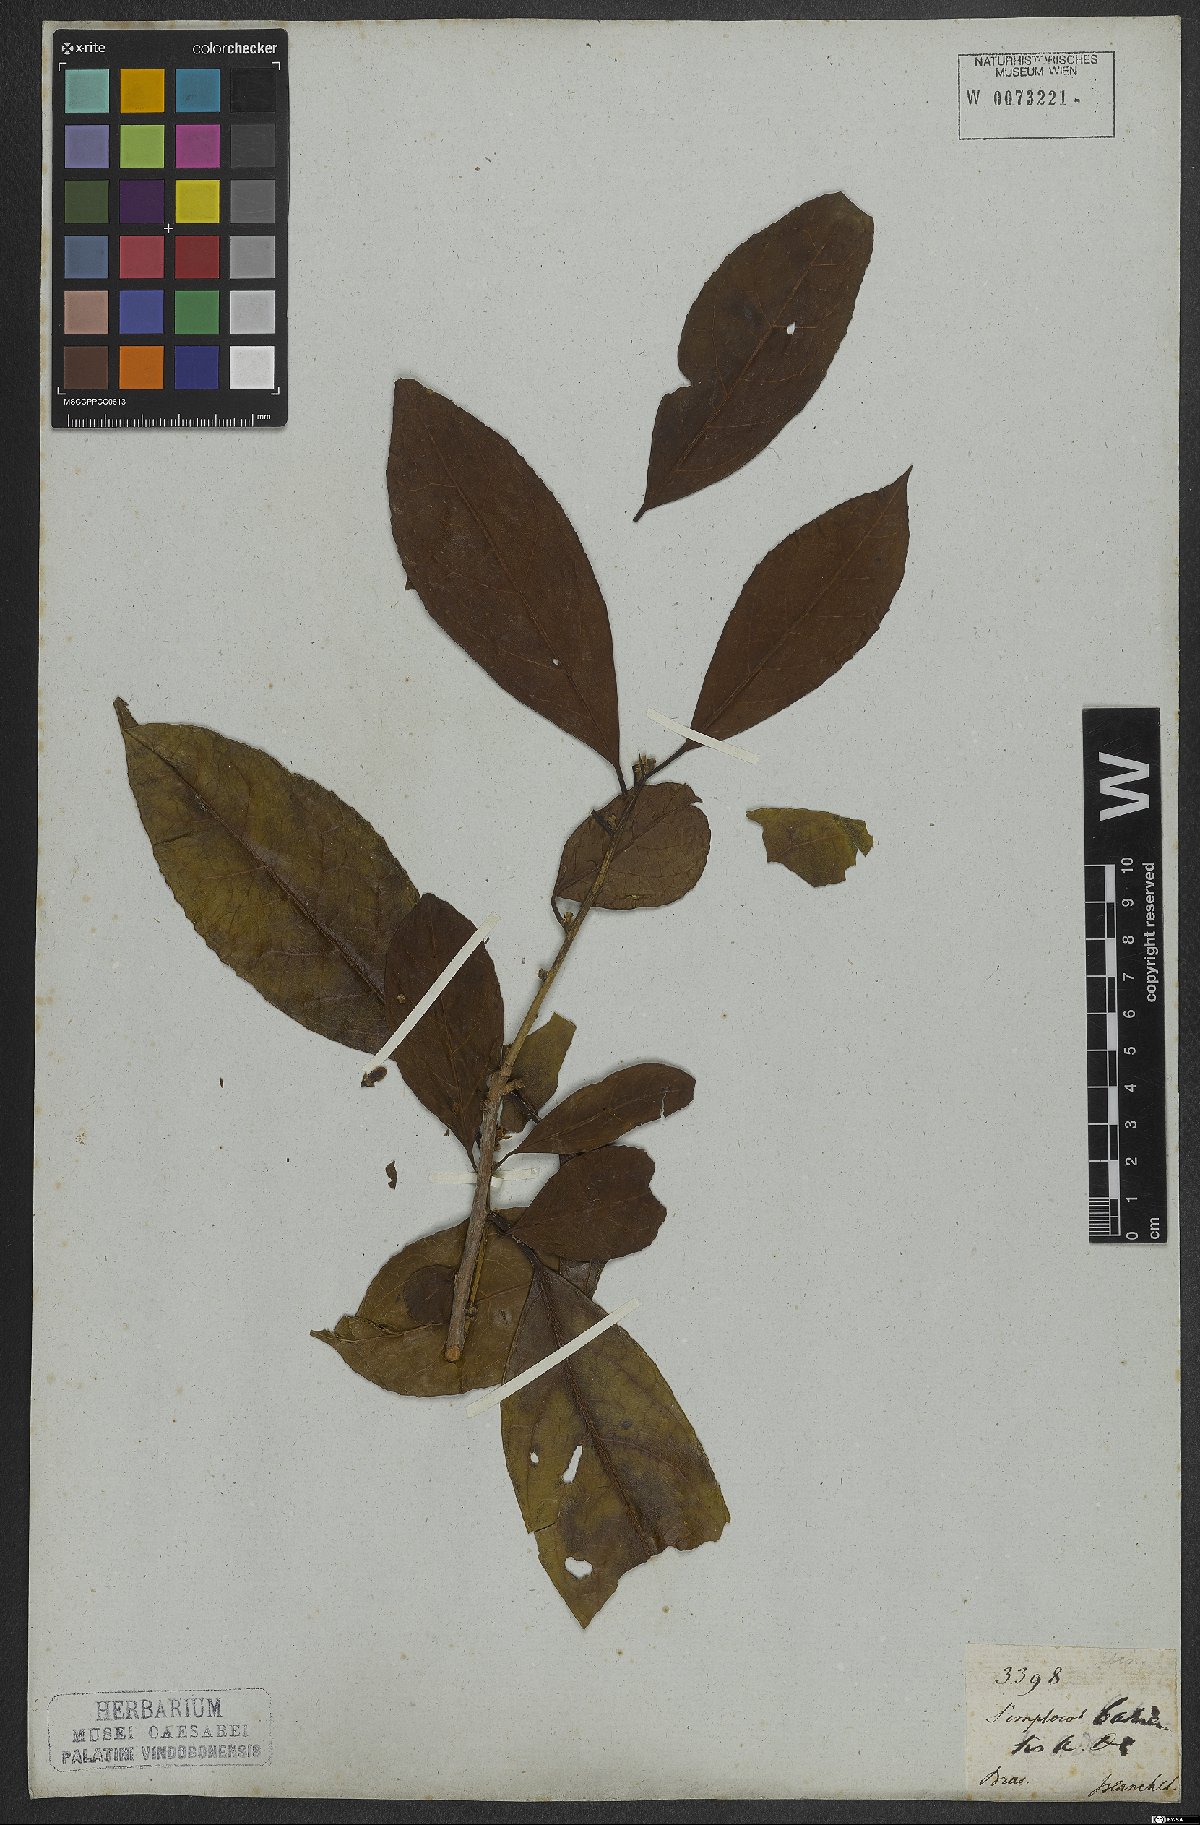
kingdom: Plantae
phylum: Tracheophyta
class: Magnoliopsida
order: Ericales
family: Symplocaceae
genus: Symplocos
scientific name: Symplocos nitens
